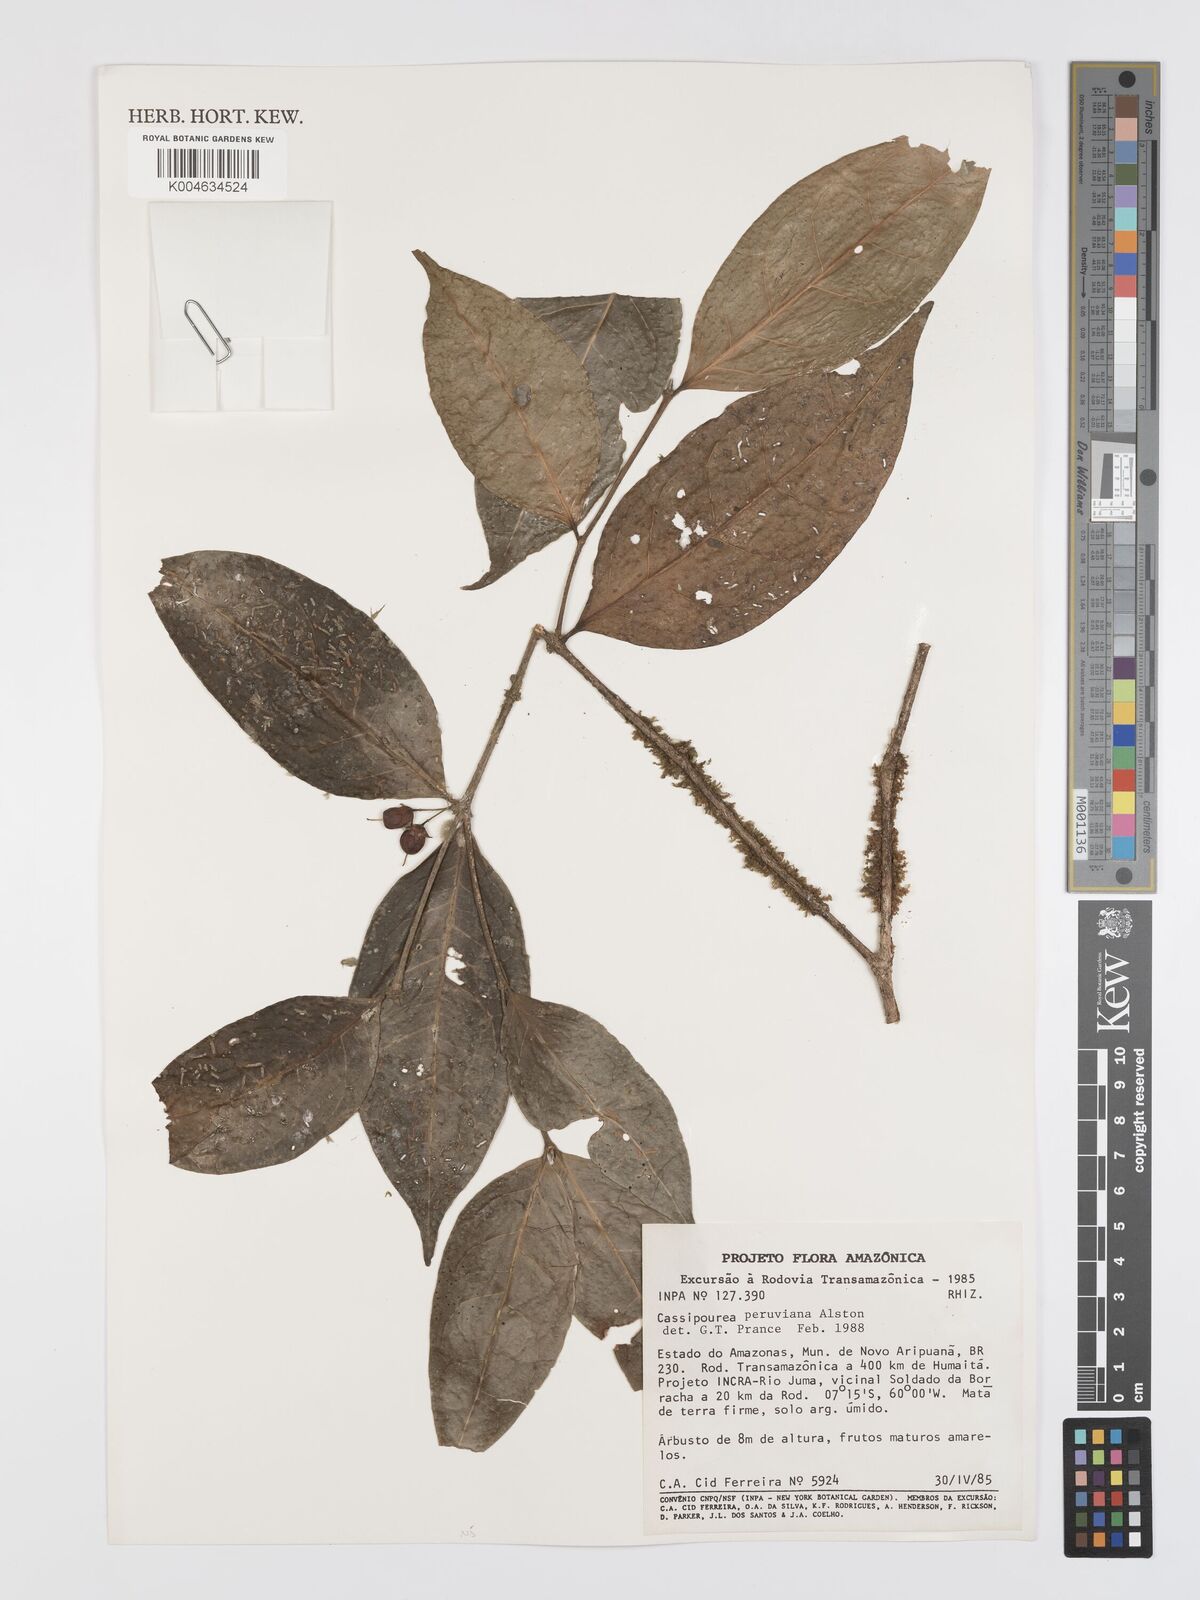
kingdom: Plantae
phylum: Tracheophyta
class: Magnoliopsida
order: Malpighiales
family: Rhizophoraceae
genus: Cassipourea
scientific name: Cassipourea peruviana
